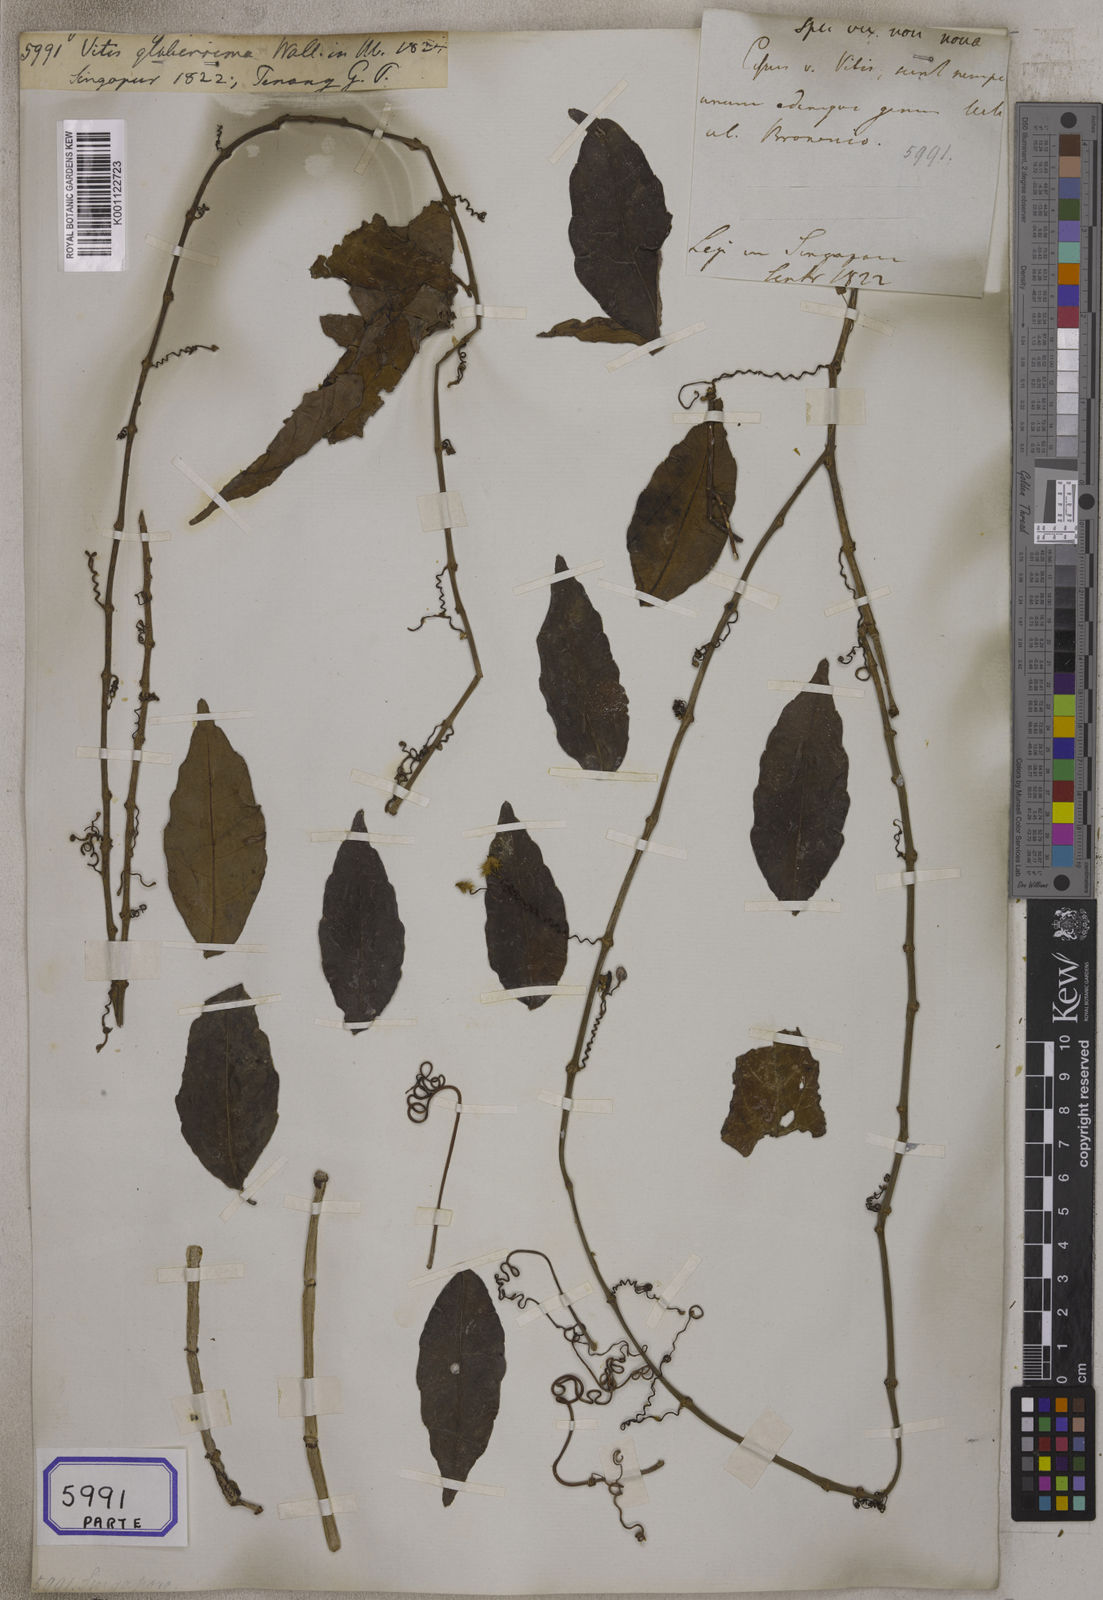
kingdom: Plantae
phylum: Tracheophyta
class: Magnoliopsida
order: Vitales
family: Vitaceae
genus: Cissus
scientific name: Cissus nodosa
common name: Grape ivy
